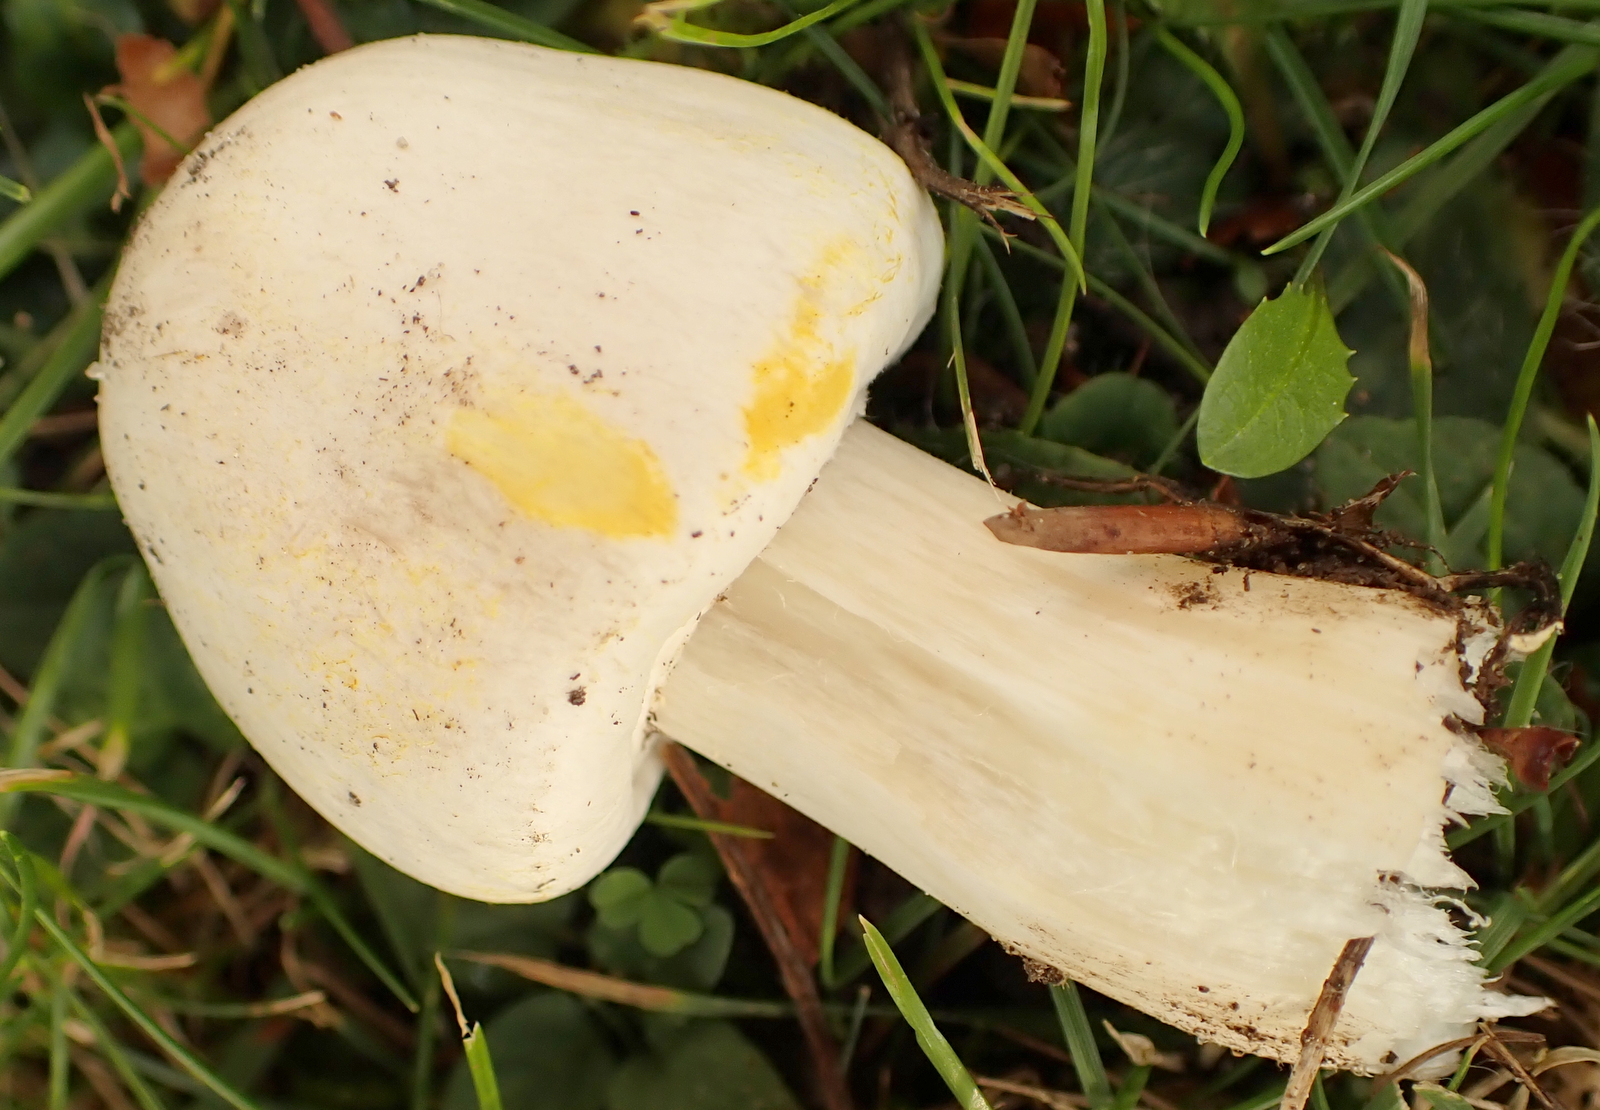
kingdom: Fungi
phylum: Basidiomycota
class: Agaricomycetes
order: Agaricales
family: Agaricaceae
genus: Agaricus
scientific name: Agaricus xanthodermus
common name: karbol-champignon
